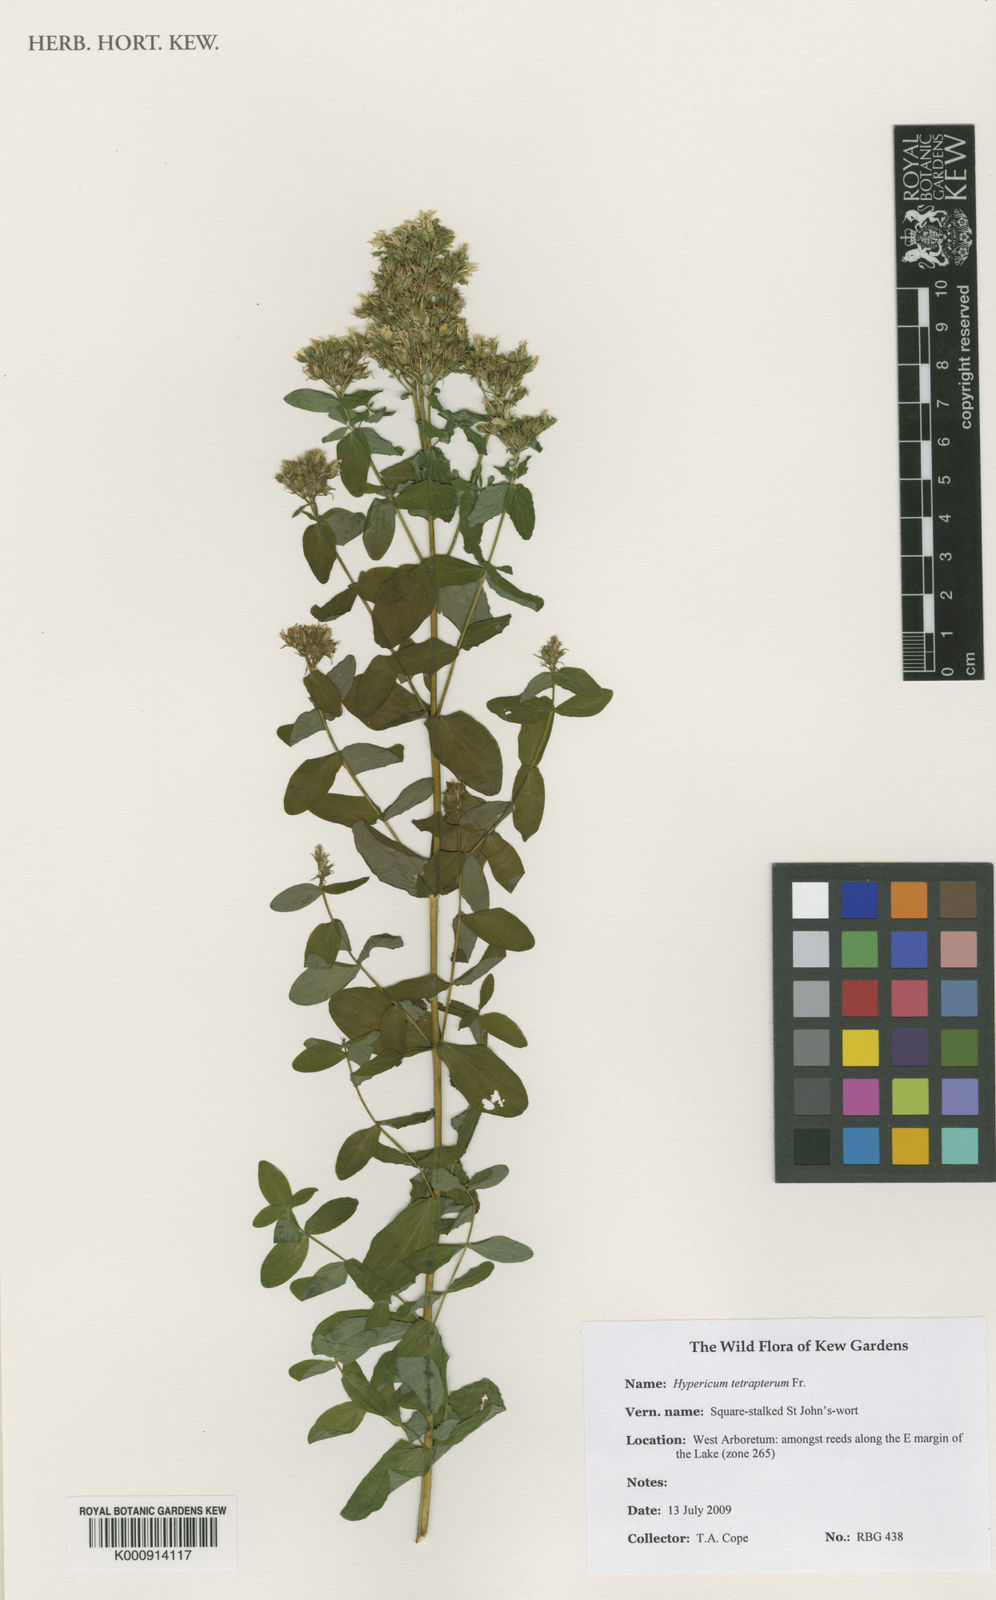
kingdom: Plantae
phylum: Tracheophyta
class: Magnoliopsida
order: Malpighiales
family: Hypericaceae
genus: Hypericum
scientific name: Hypericum tetrapterum
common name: Square-stalked st. john's-wort
